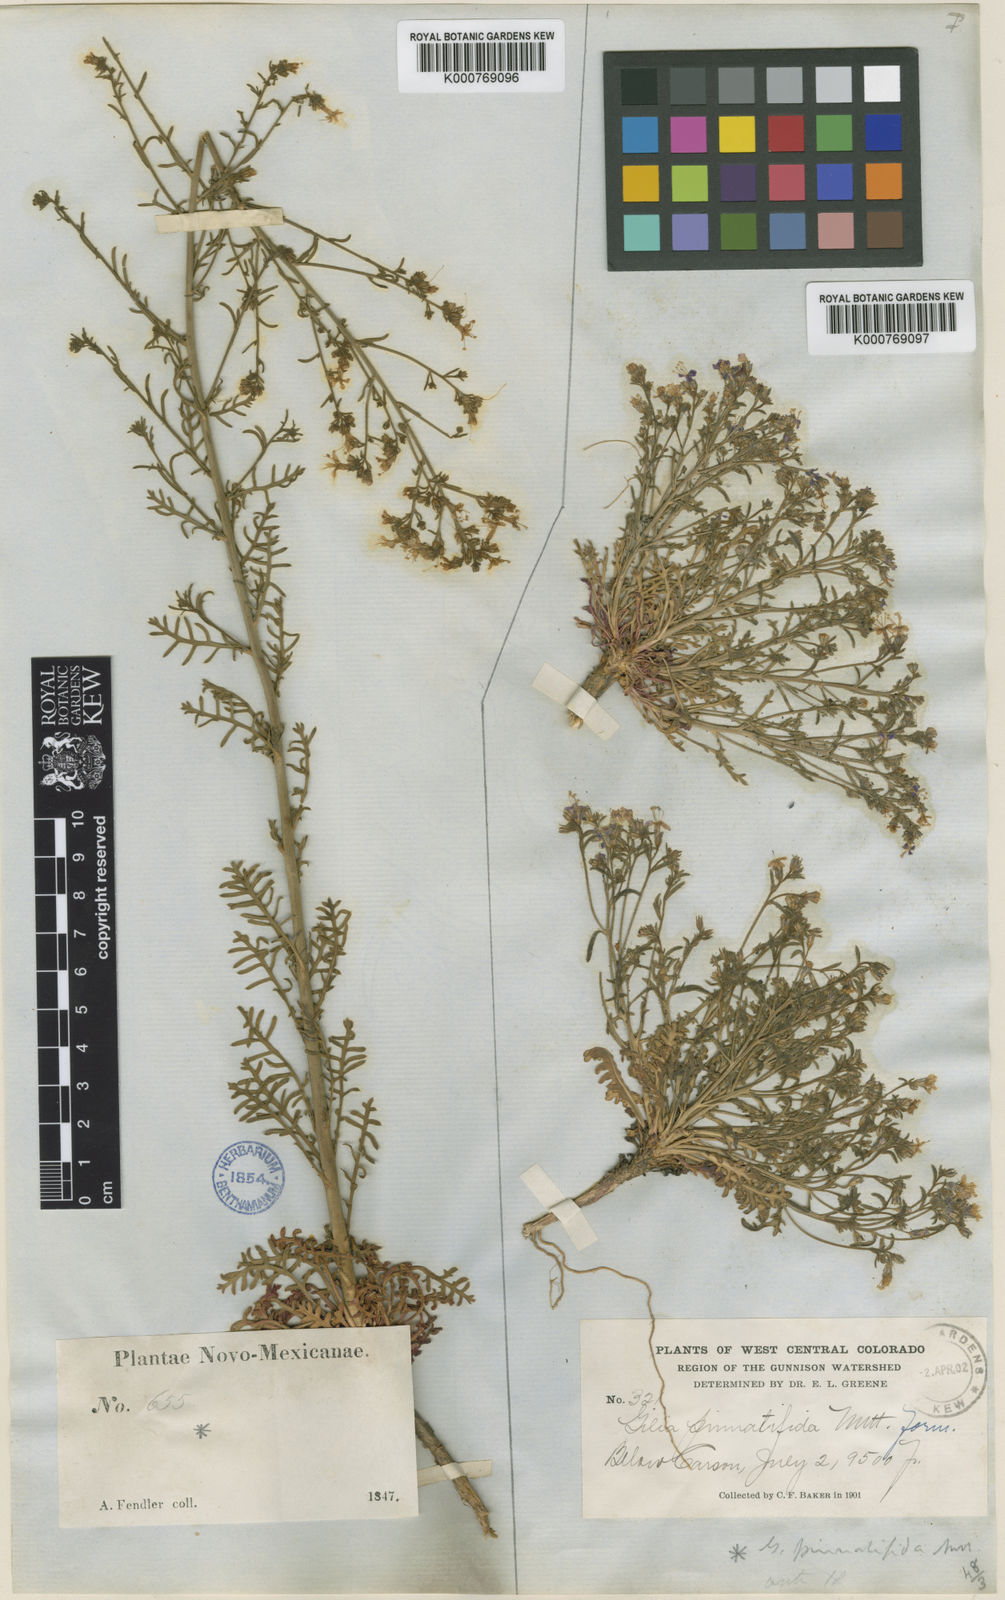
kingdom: Plantae
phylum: Tracheophyta
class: Magnoliopsida
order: Ericales
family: Polemoniaceae
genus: Aliciella
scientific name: Aliciella pinnatifida
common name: Sticky gilia
